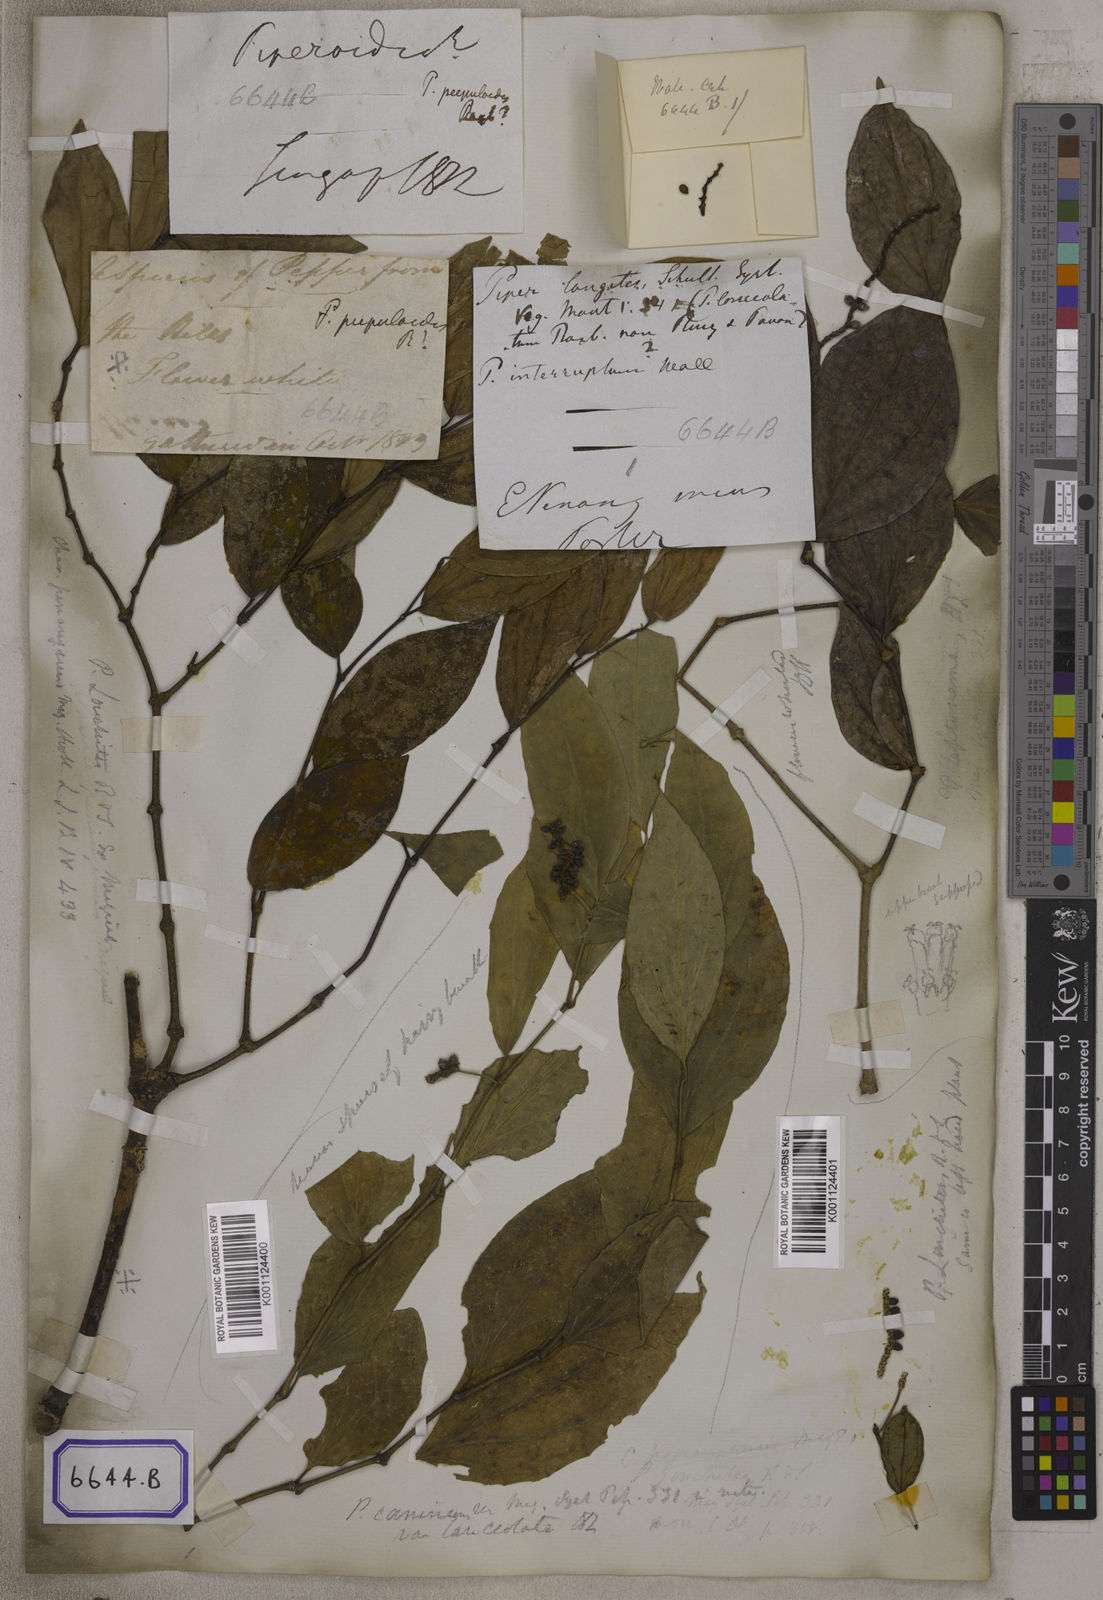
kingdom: Plantae
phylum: Tracheophyta
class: Magnoliopsida
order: Piperales
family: Piperaceae
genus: Piper
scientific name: Piper
